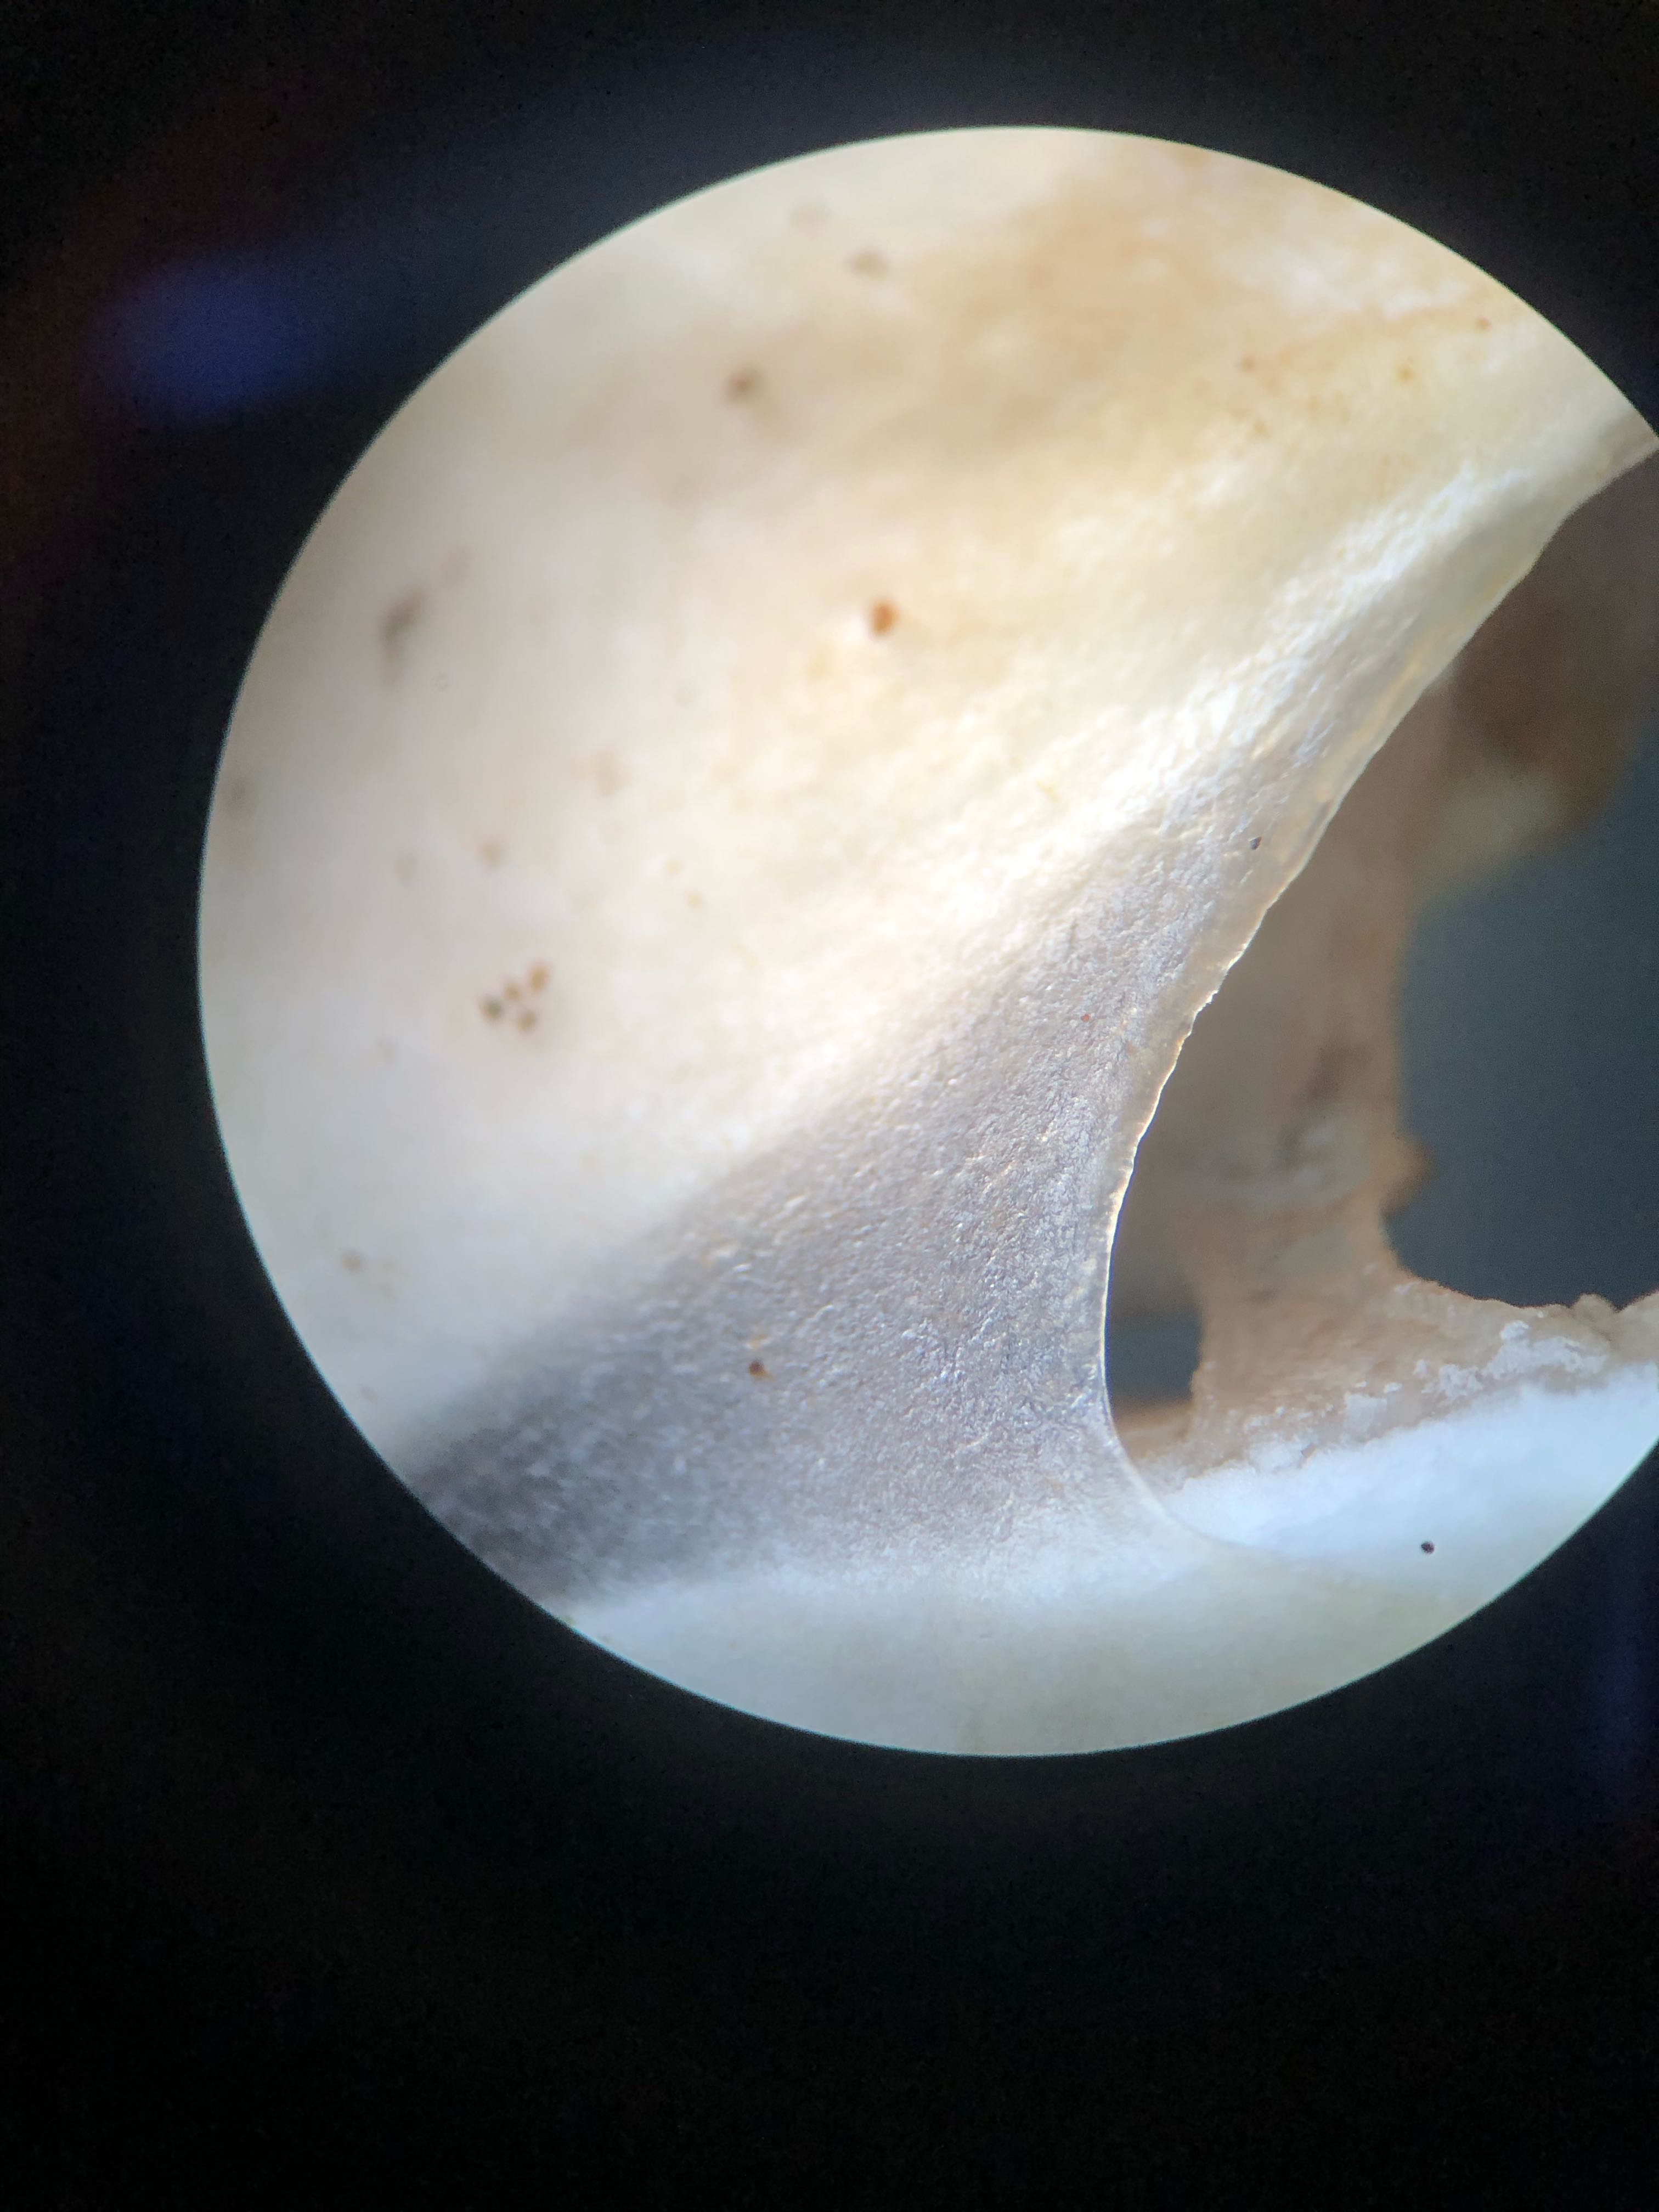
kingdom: Fungi
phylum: Basidiomycota
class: Agaricomycetes
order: Agaricales
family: Crepidotaceae
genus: Crepidotus
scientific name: Crepidotus mollis
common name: blød muslingesvamp
